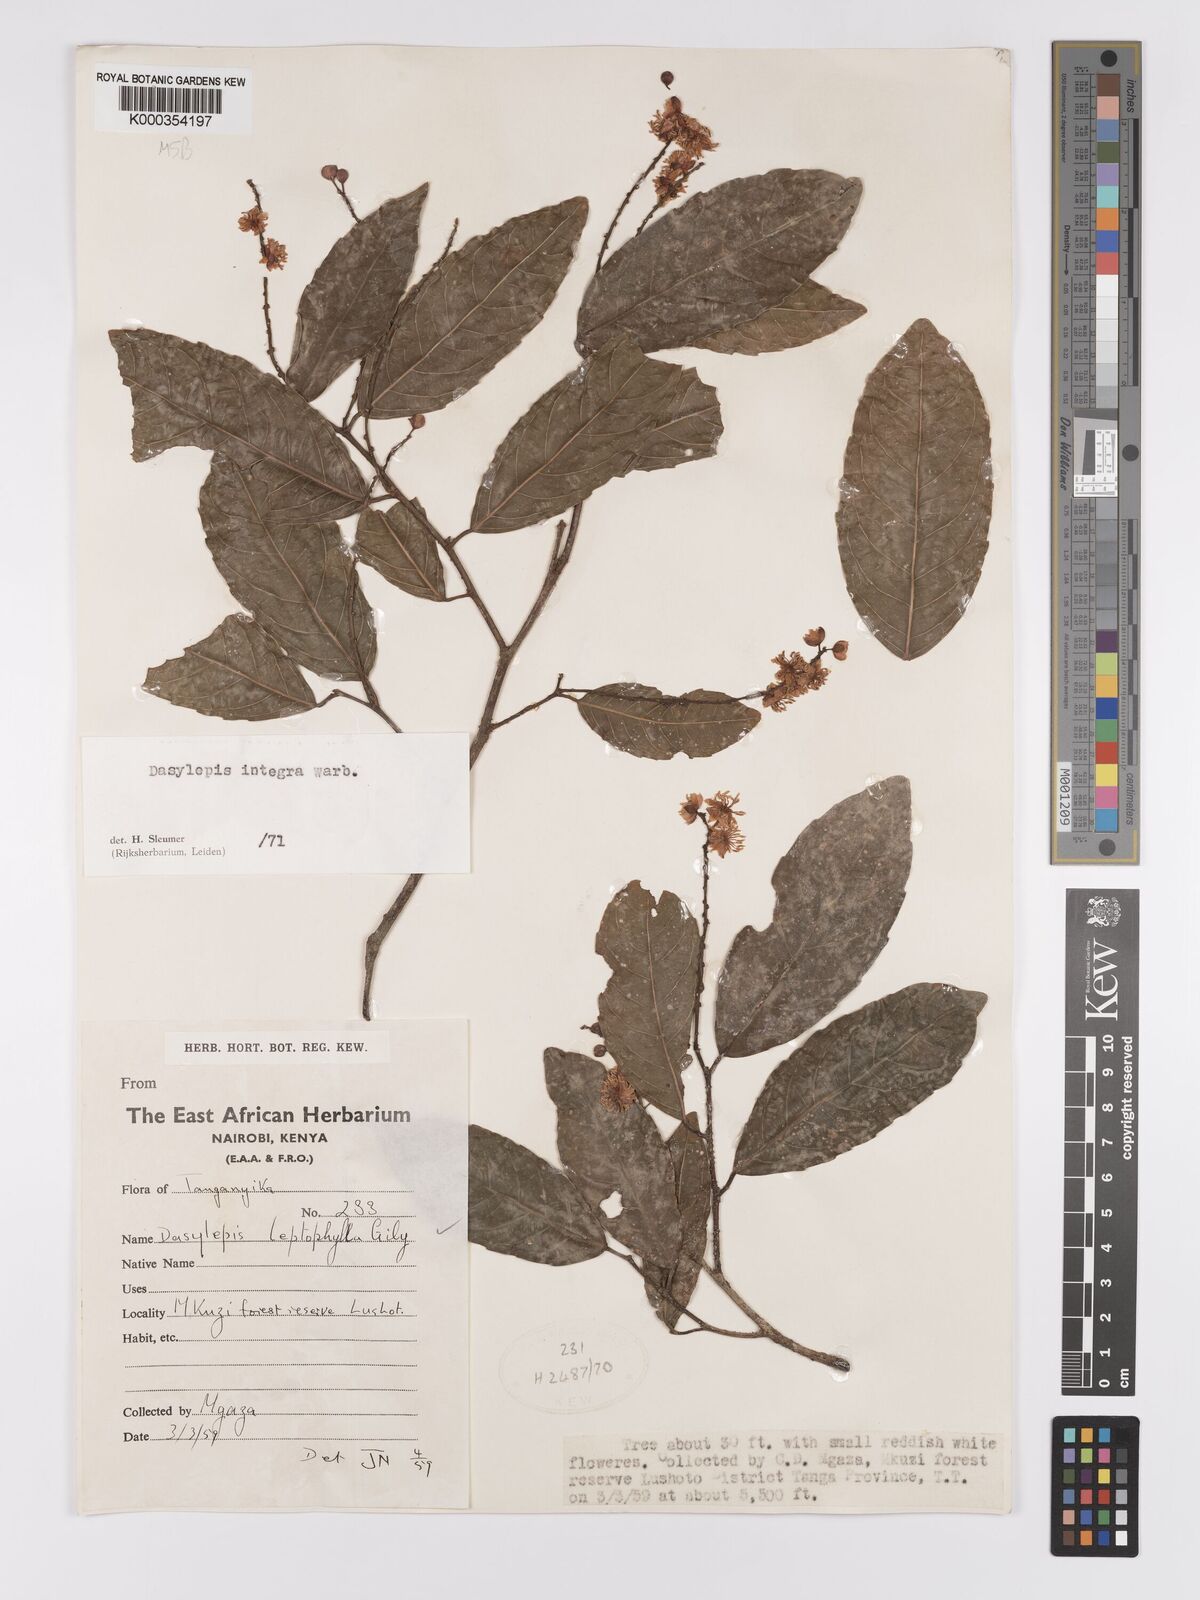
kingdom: Plantae
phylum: Tracheophyta
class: Magnoliopsida
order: Malpighiales
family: Achariaceae
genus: Dasylepis
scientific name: Dasylepis integra
